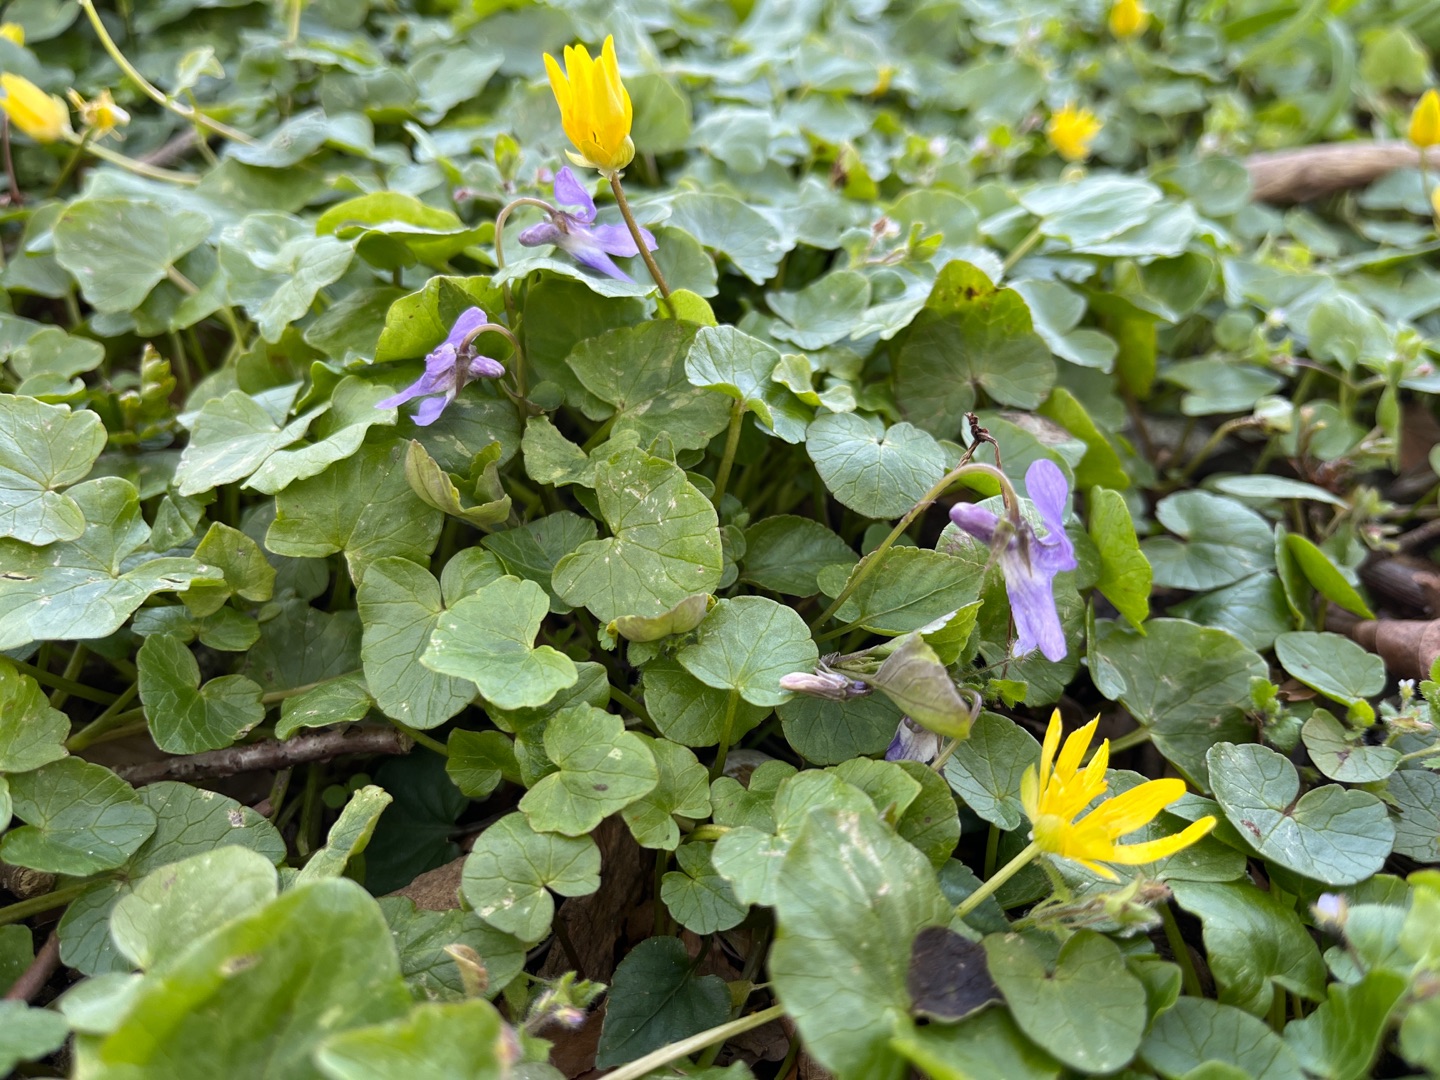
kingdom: Plantae
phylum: Tracheophyta
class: Magnoliopsida
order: Malpighiales
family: Violaceae
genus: Viola
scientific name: Viola reichenbachiana
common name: Skov-viol
